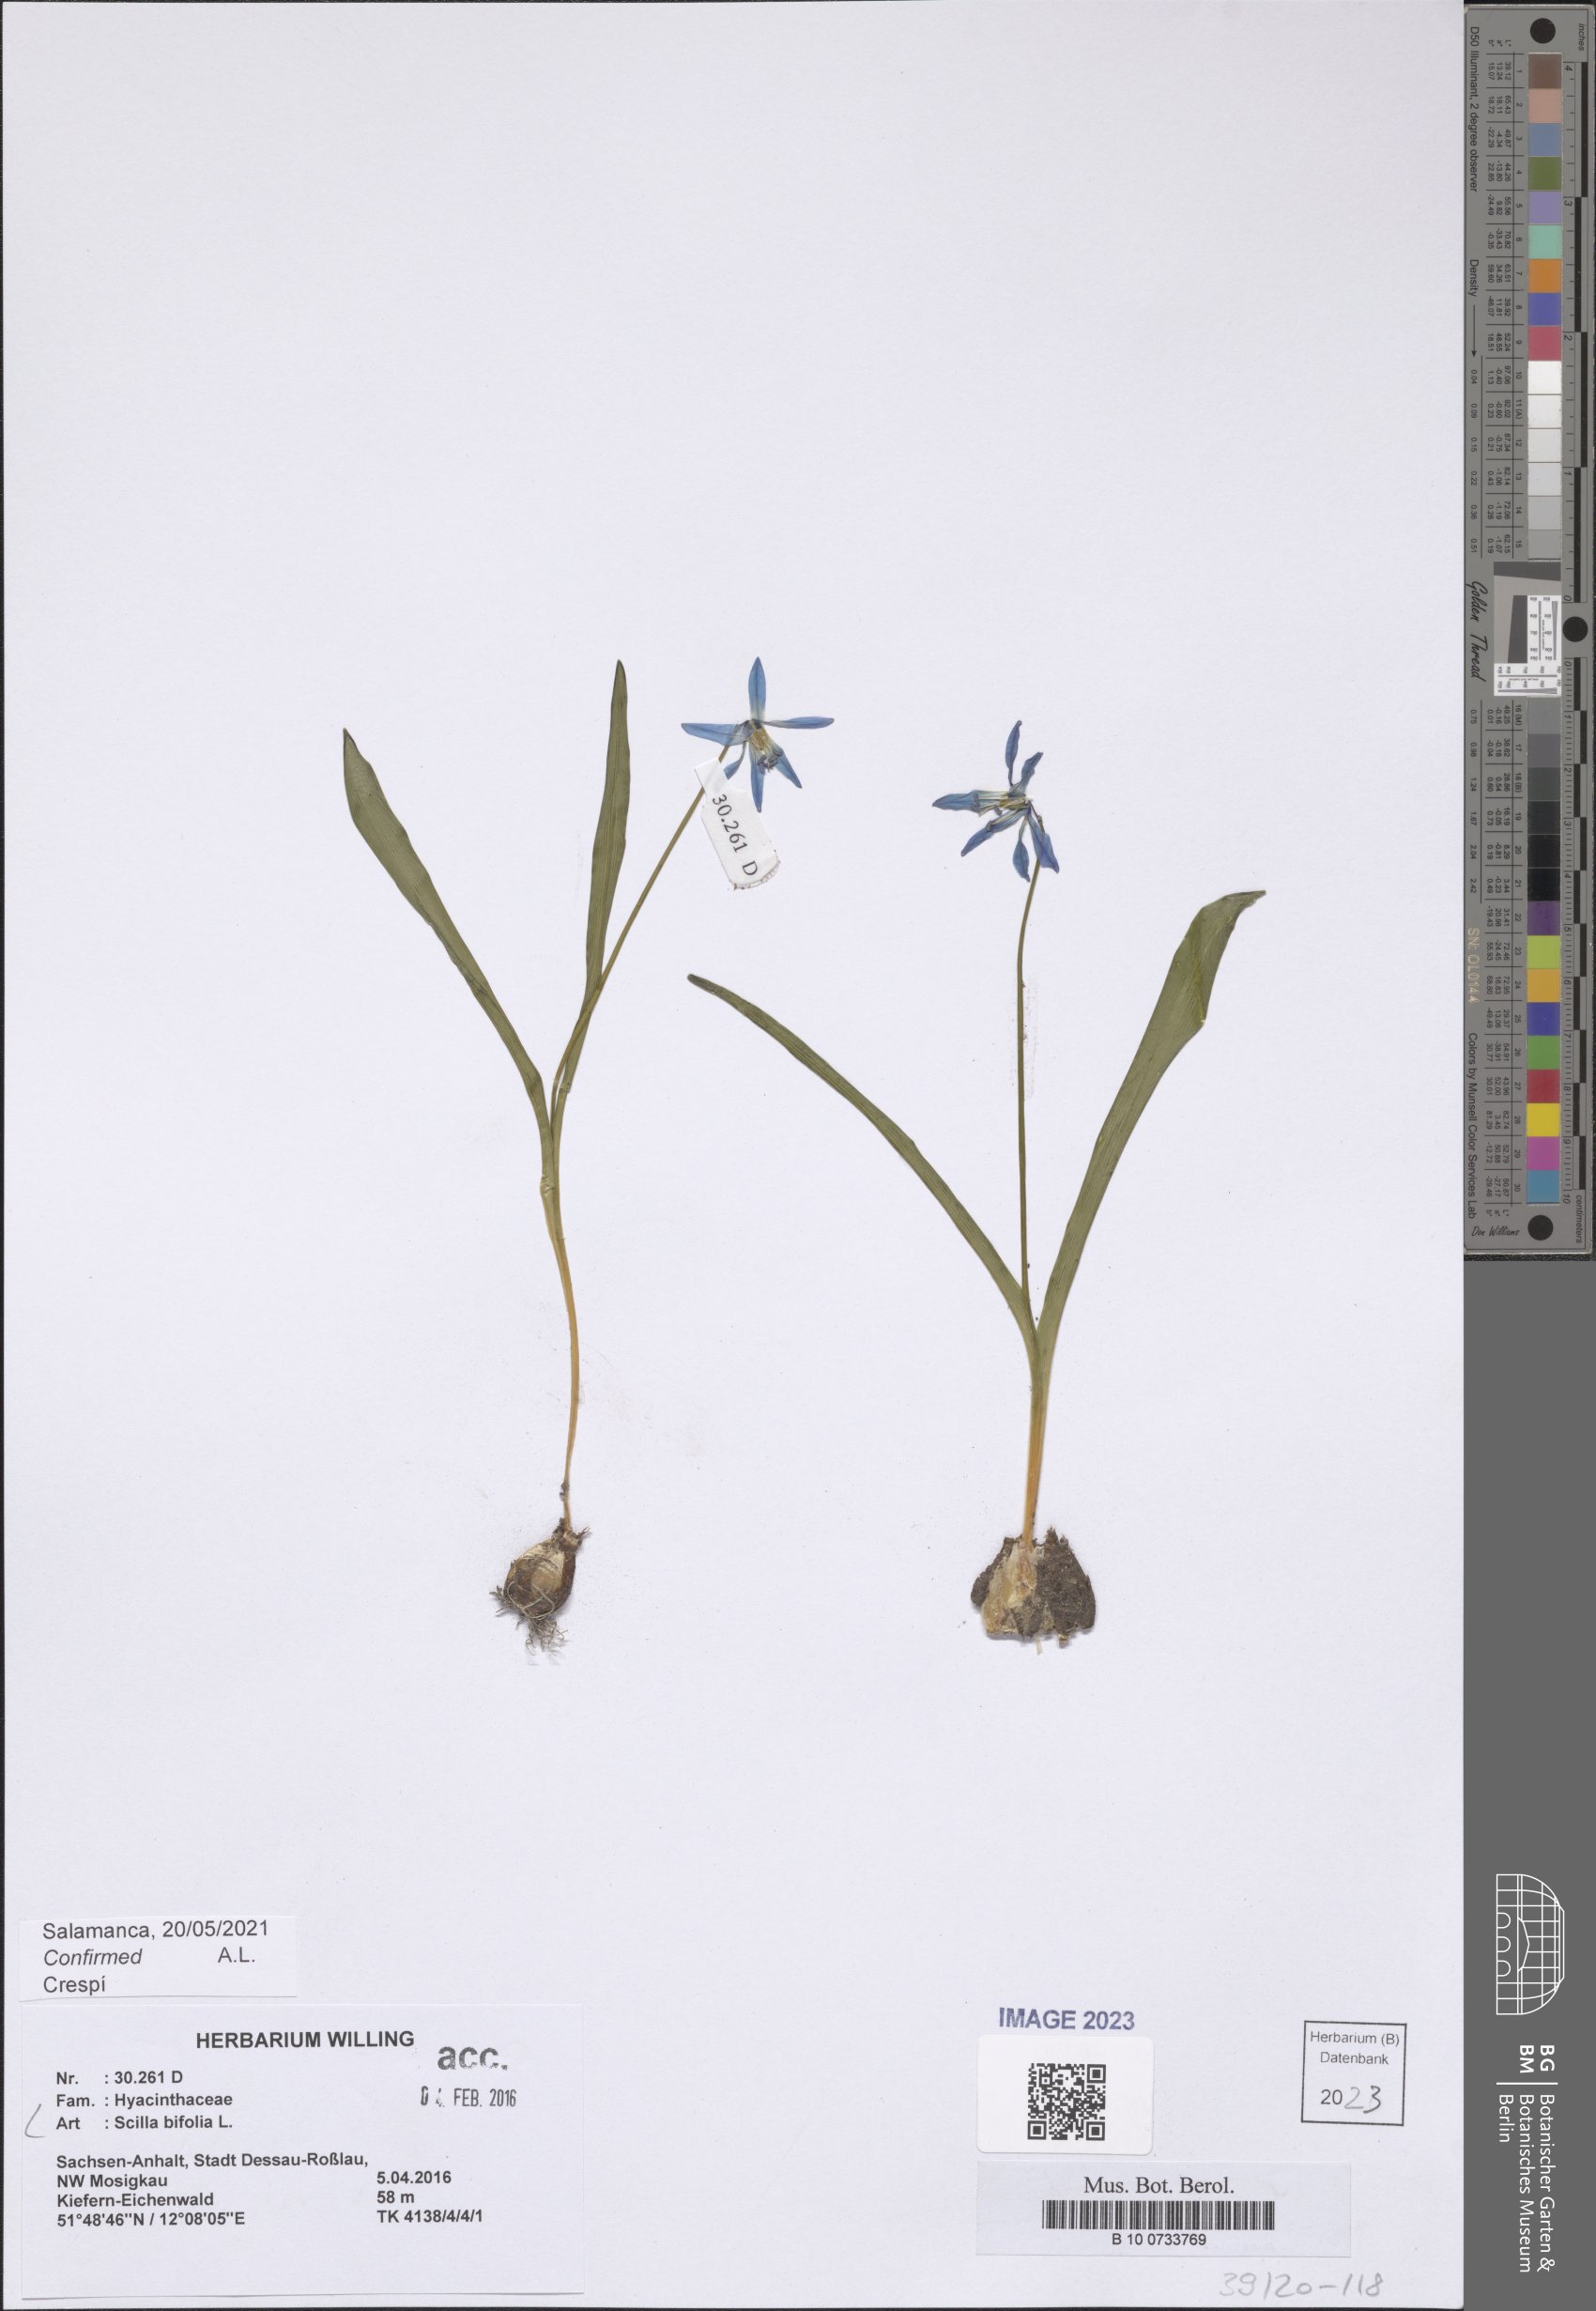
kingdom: Plantae
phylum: Tracheophyta
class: Liliopsida
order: Asparagales
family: Asparagaceae
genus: Scilla
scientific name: Scilla bifolia
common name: Alpine squill
